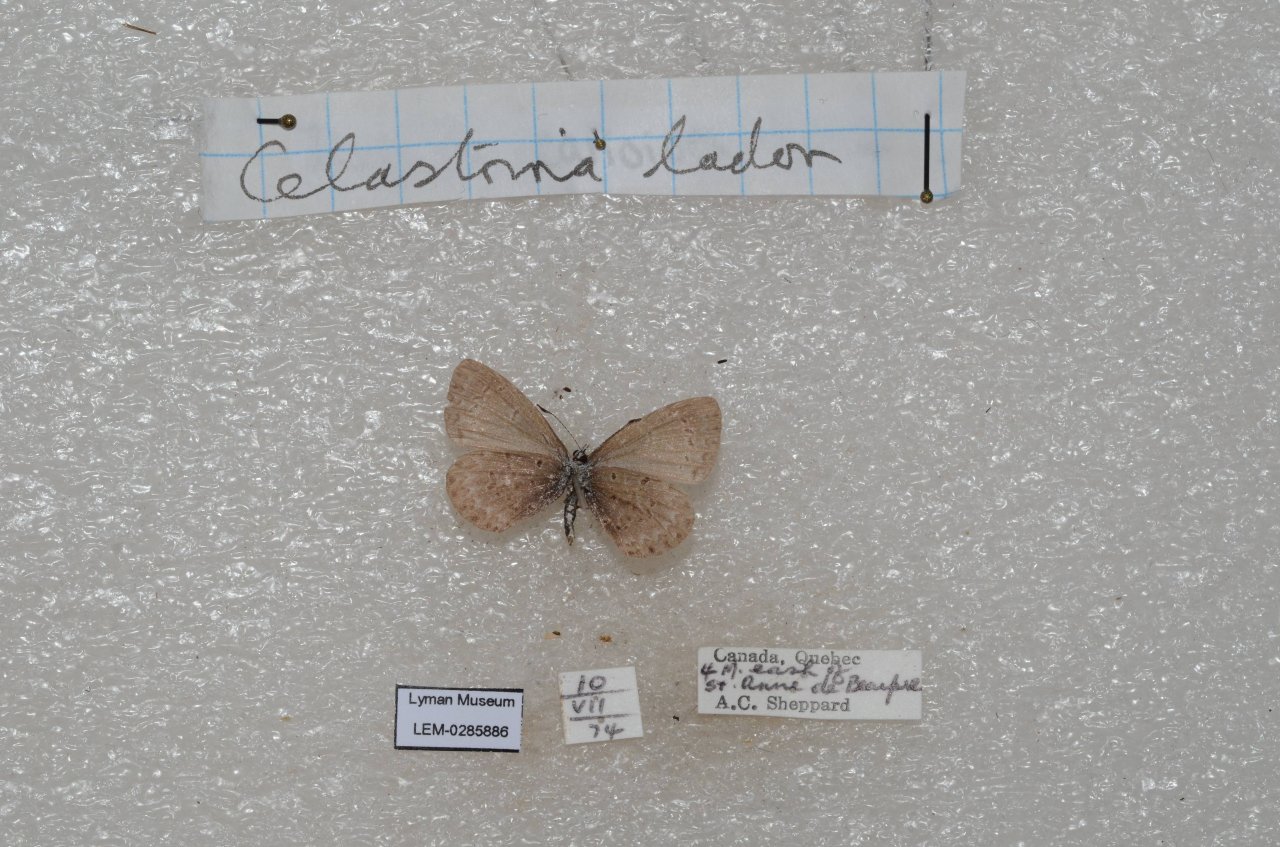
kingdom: Animalia
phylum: Arthropoda
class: Insecta
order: Lepidoptera
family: Lycaenidae
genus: Celastrina
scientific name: Celastrina lucia
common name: Northern Spring Azure
